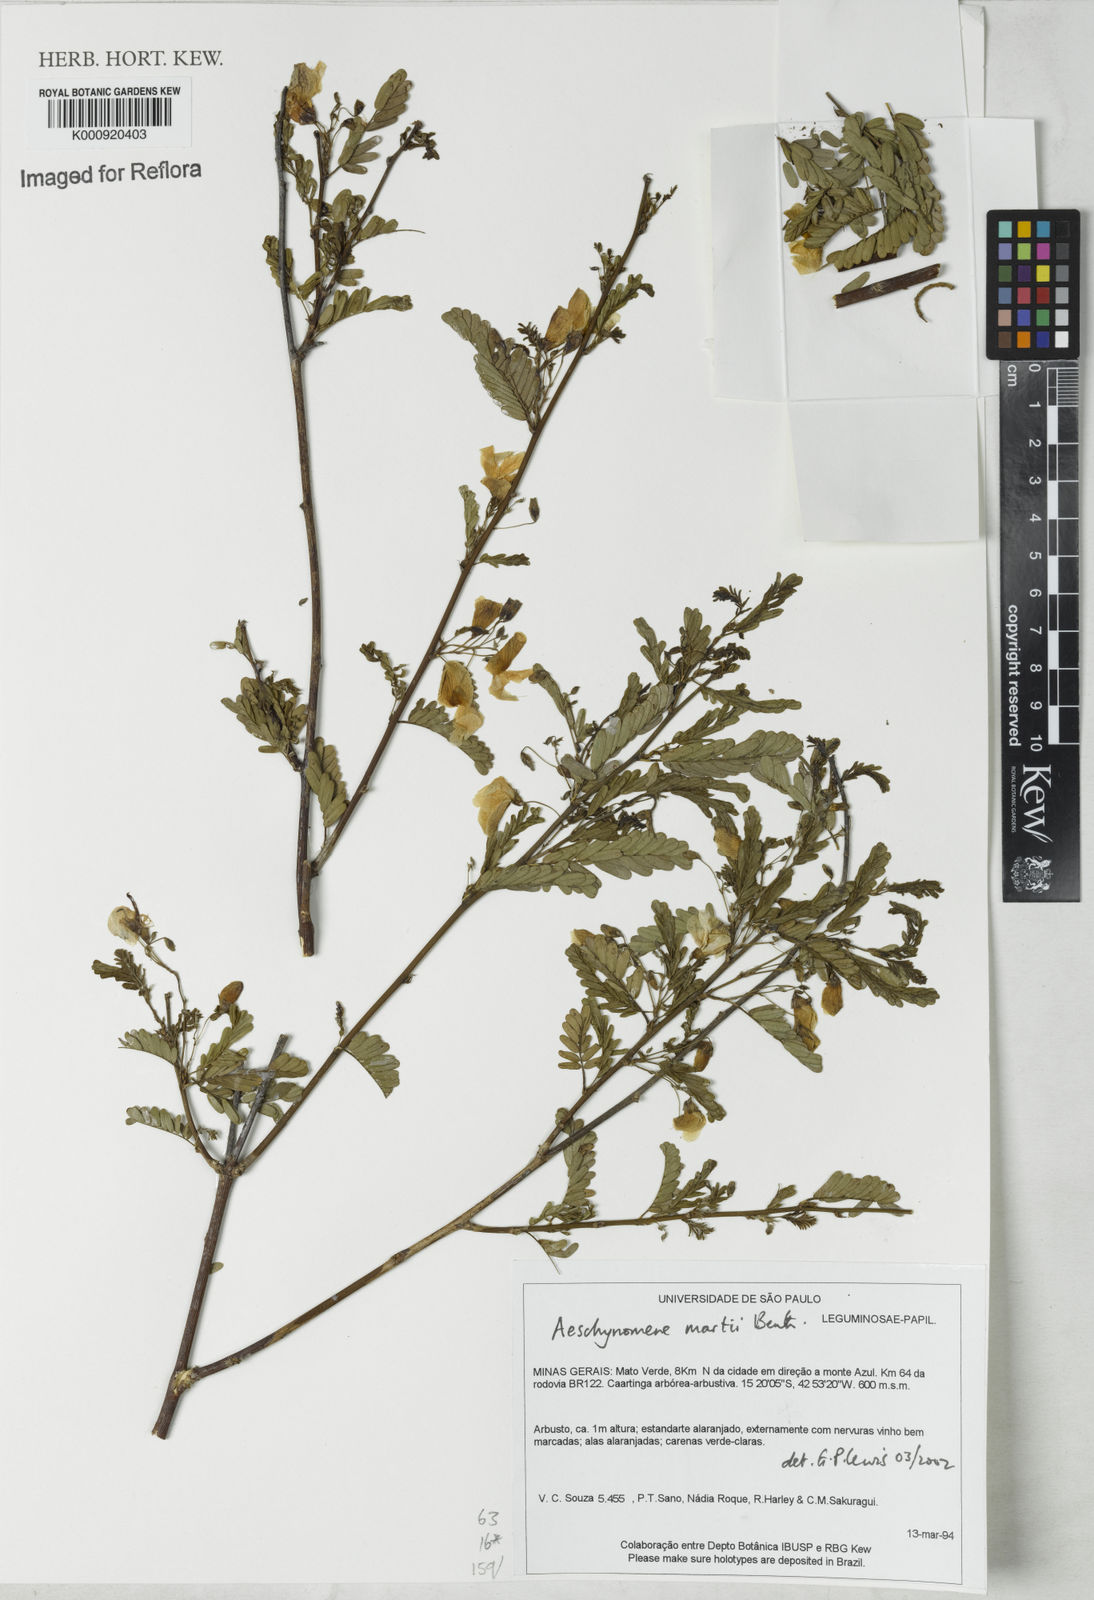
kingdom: Plantae
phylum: Tracheophyta
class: Magnoliopsida
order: Fabales
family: Fabaceae
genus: Ctenodon
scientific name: Ctenodon martii
